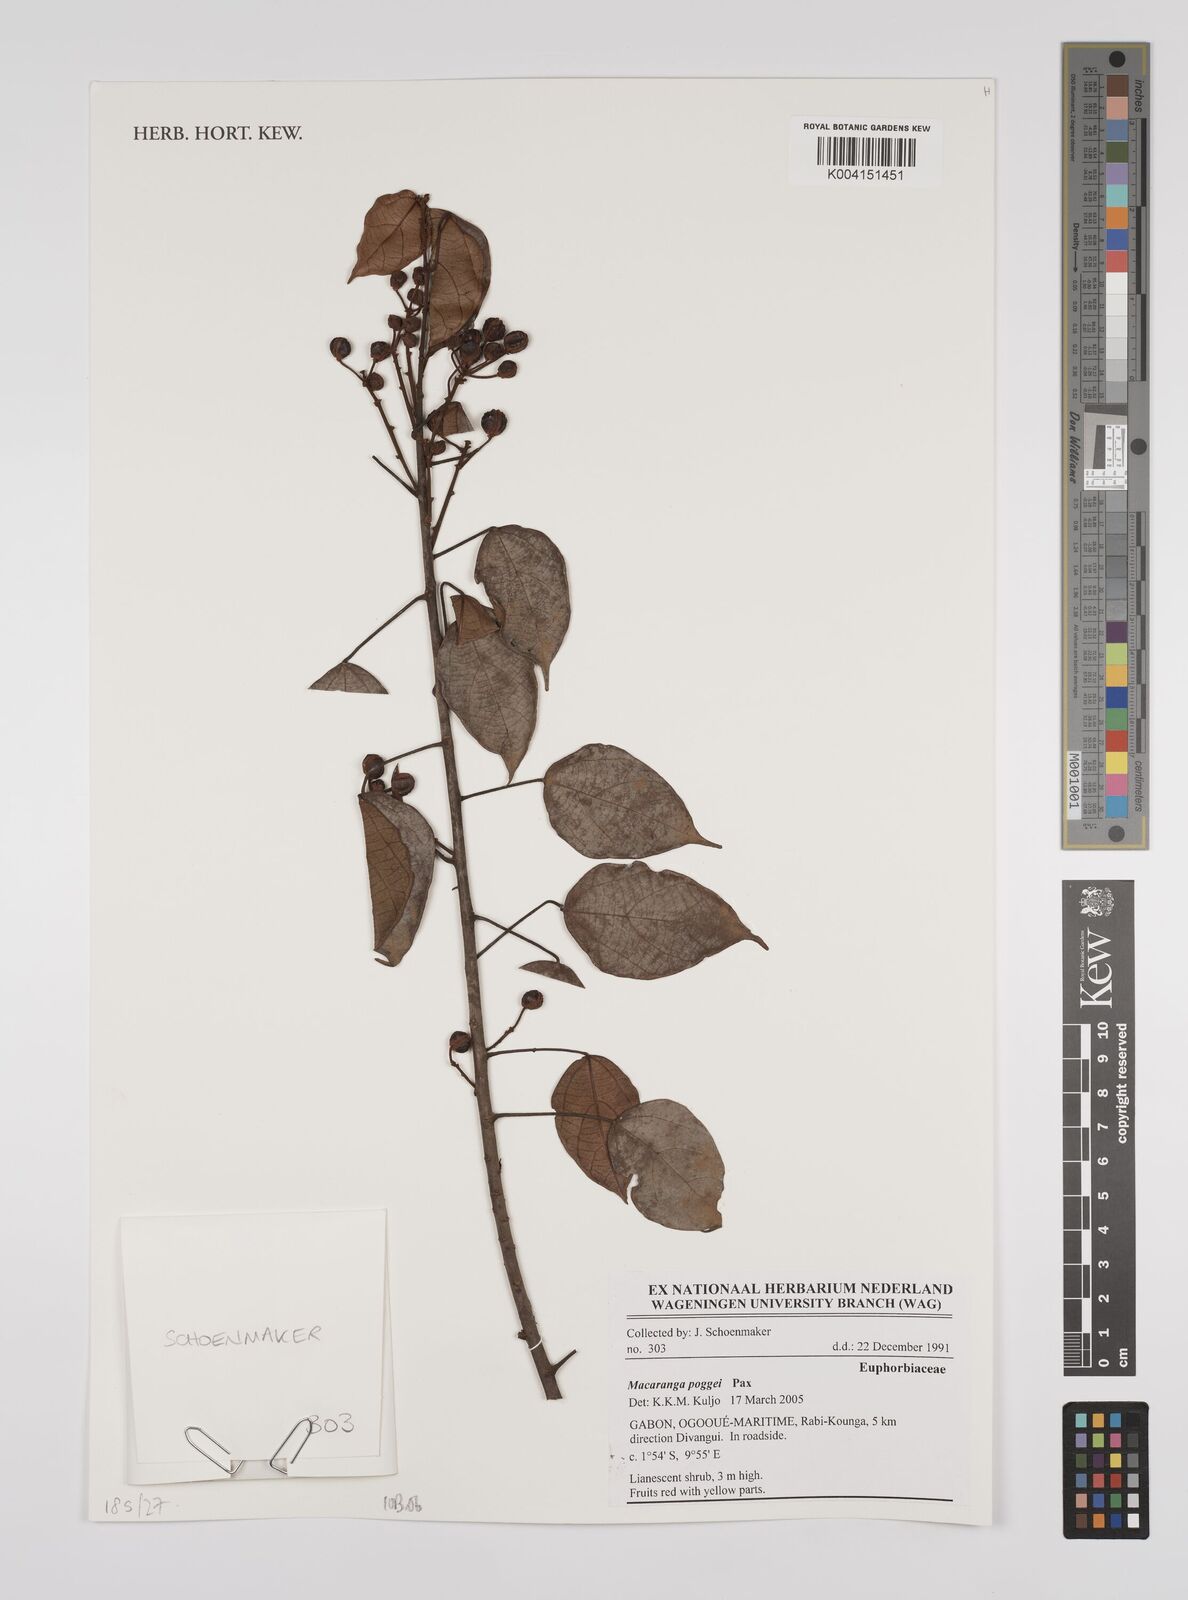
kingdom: Plantae
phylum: Tracheophyta
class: Magnoliopsida
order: Malpighiales
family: Euphorbiaceae
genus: Macaranga
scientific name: Macaranga poggei
